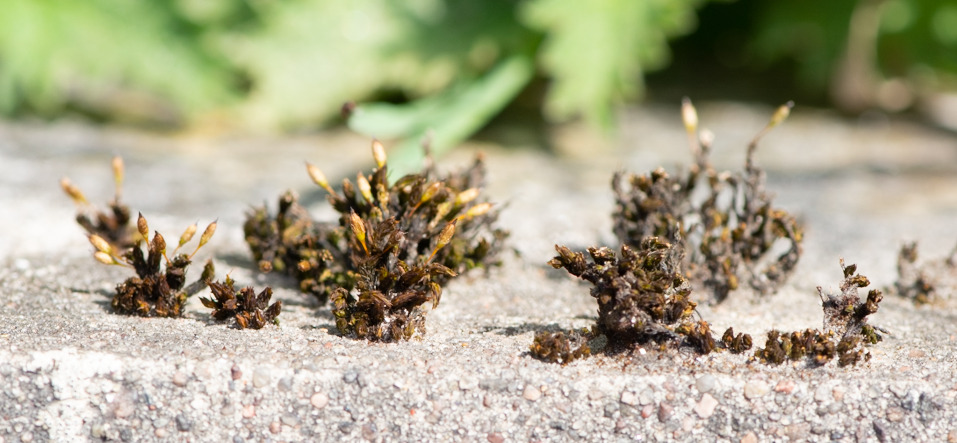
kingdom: Plantae
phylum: Bryophyta
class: Bryopsida
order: Orthotrichales
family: Orthotrichaceae
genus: Orthotrichum
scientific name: Orthotrichum anomalum
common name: Mørk furehætte
